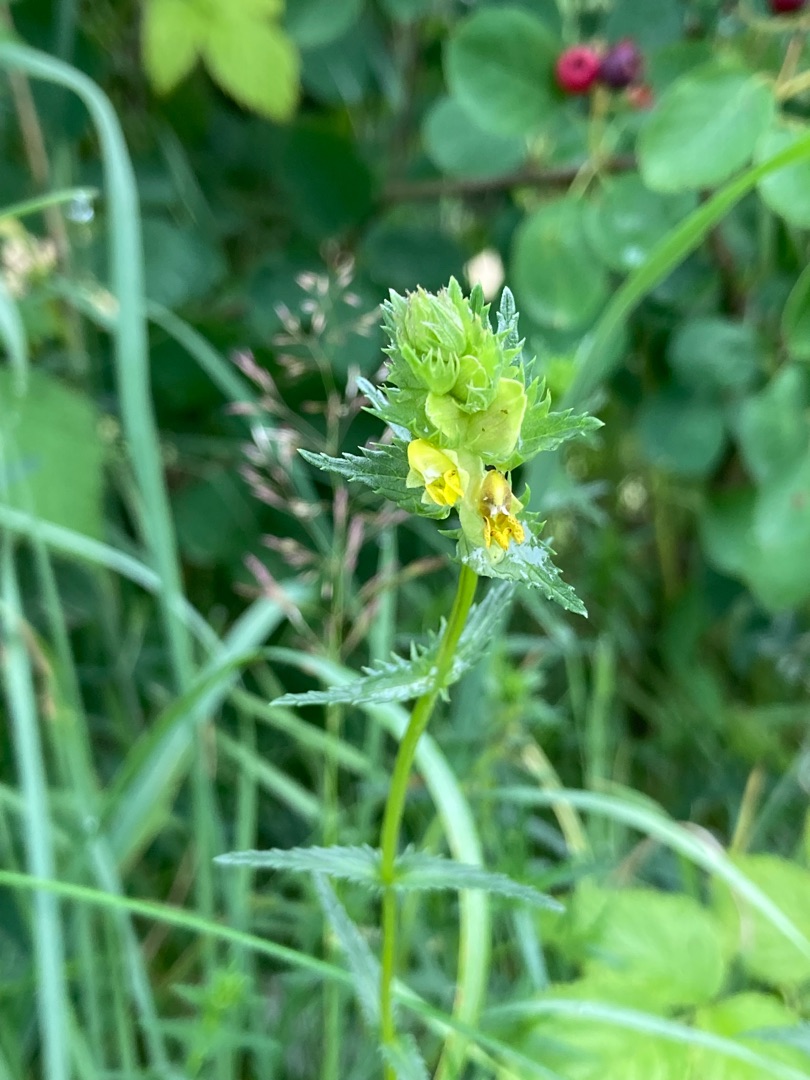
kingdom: Plantae
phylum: Tracheophyta
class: Magnoliopsida
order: Lamiales
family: Orobanchaceae
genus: Rhinanthus
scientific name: Rhinanthus minor
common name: Liden skjaller
